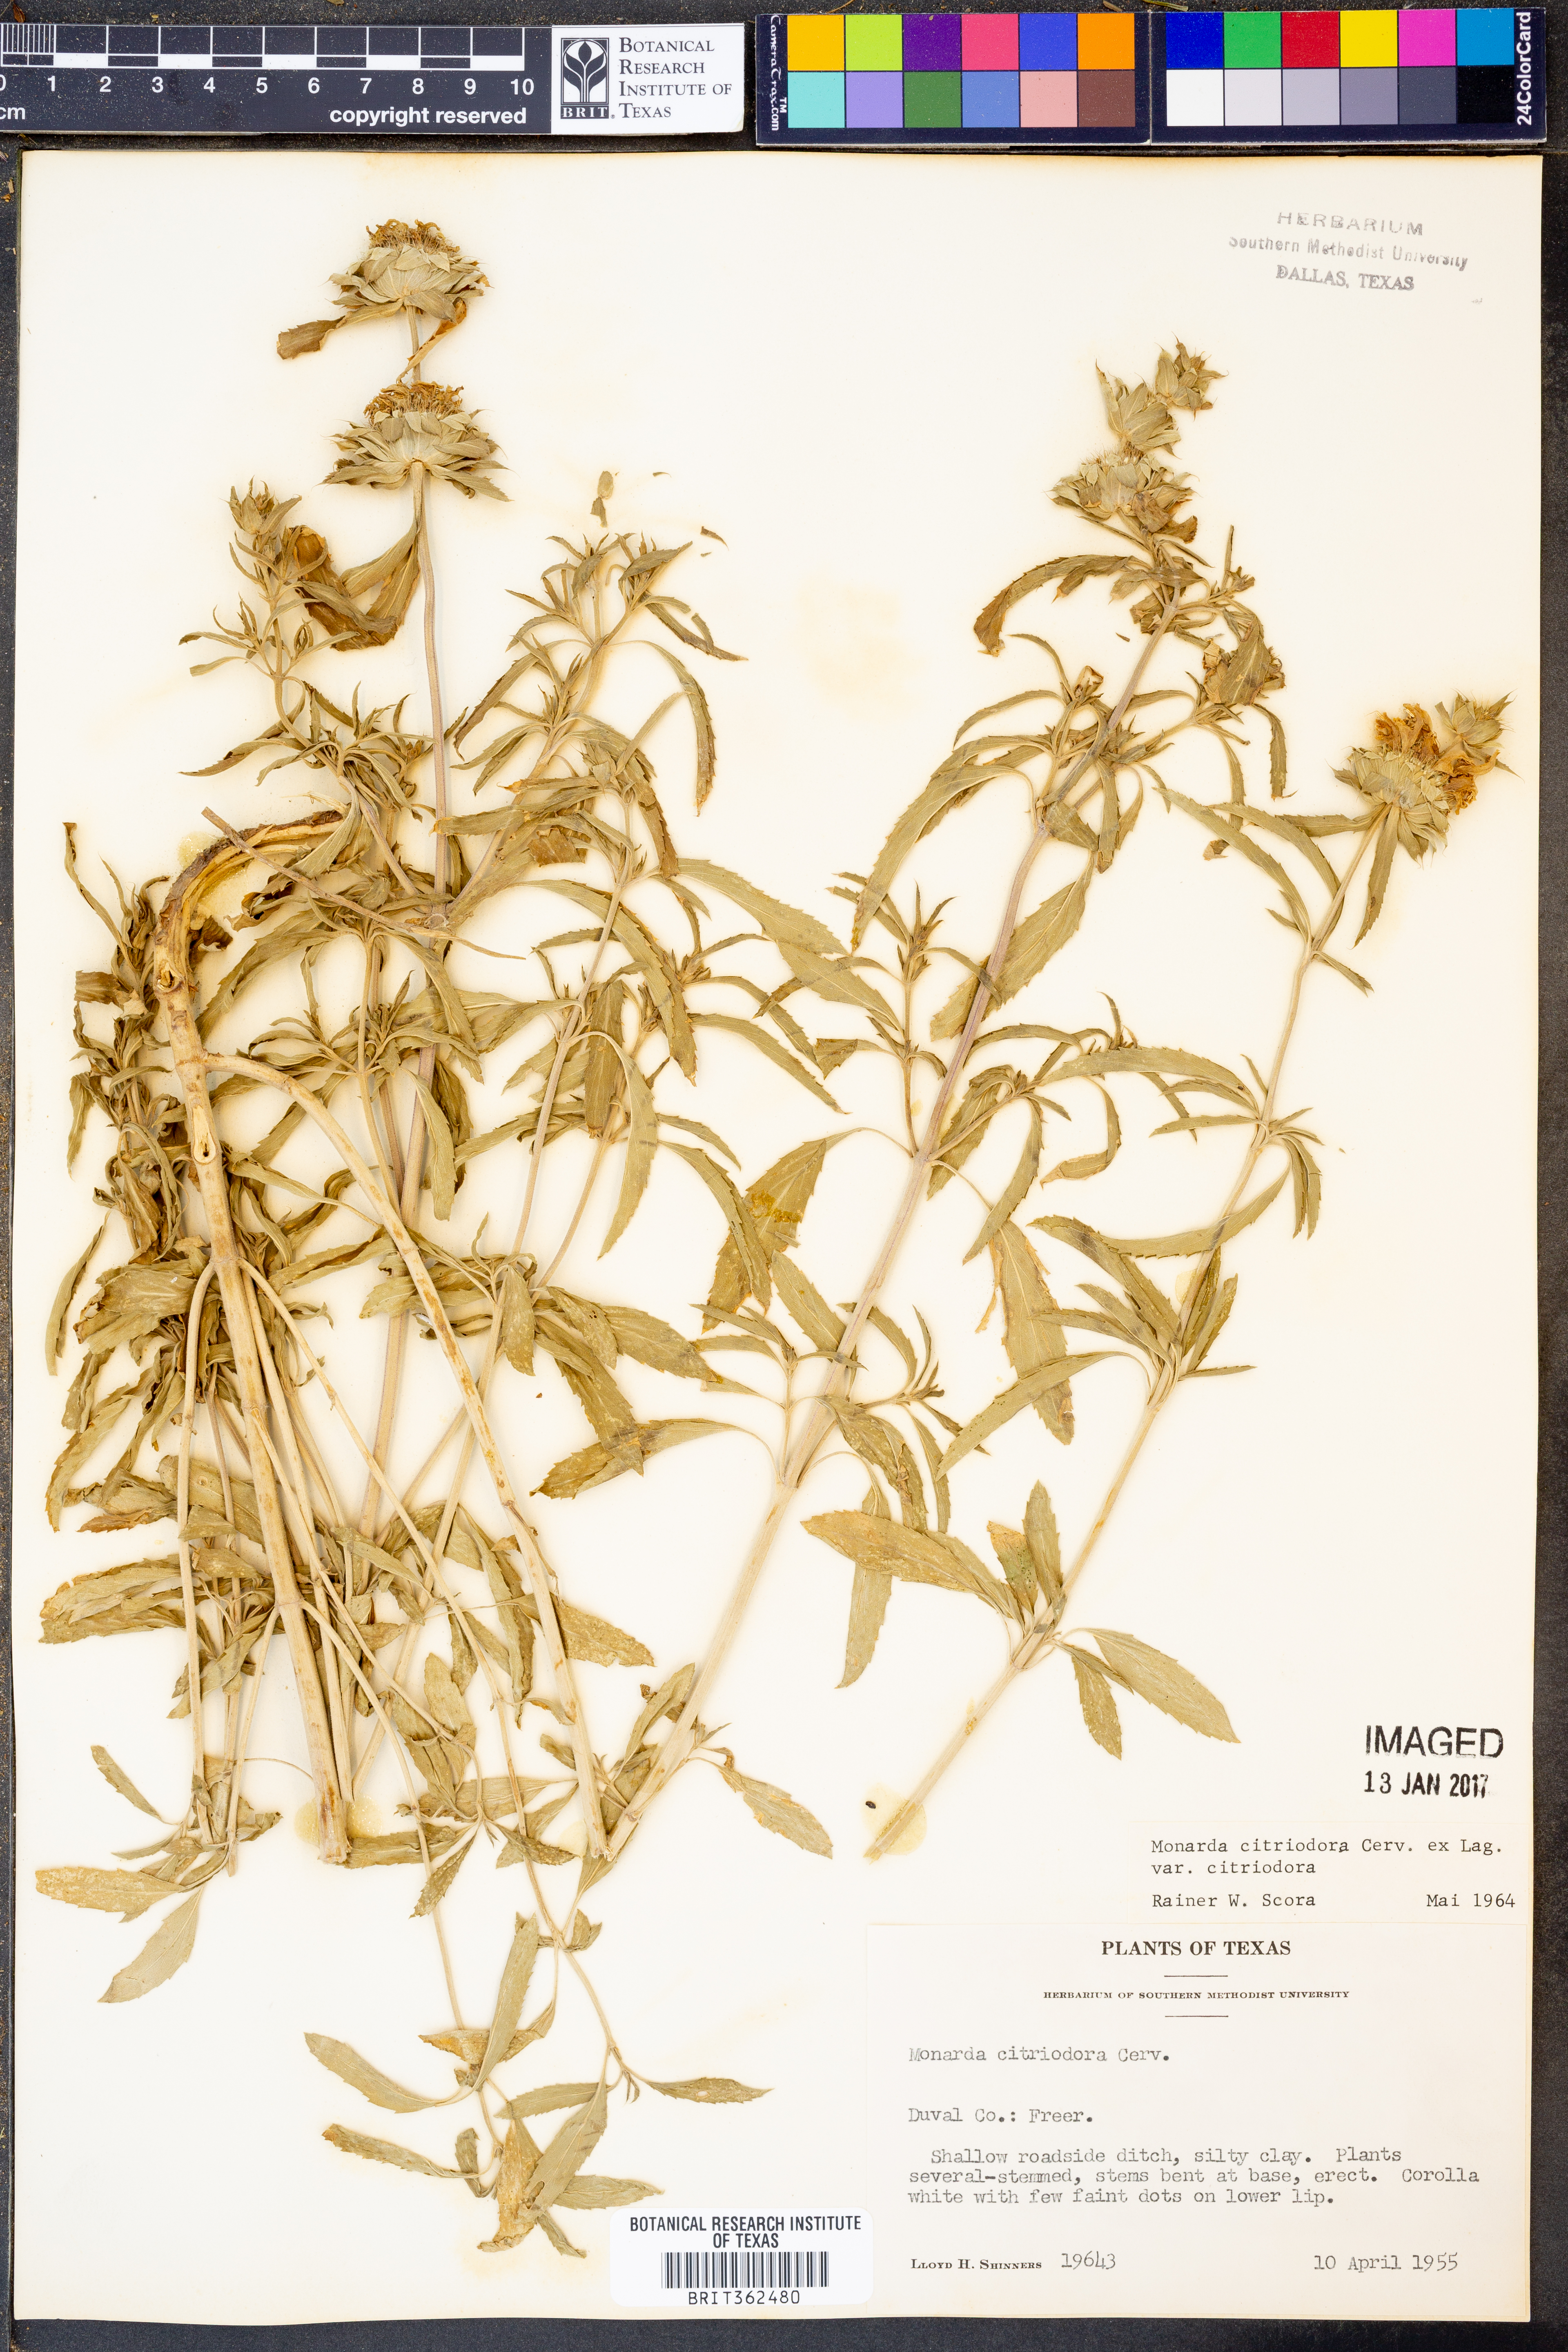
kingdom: Plantae
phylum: Tracheophyta
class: Magnoliopsida
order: Lamiales
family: Lamiaceae
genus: Monarda
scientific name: Monarda citriodora
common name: Lemon beebalm
